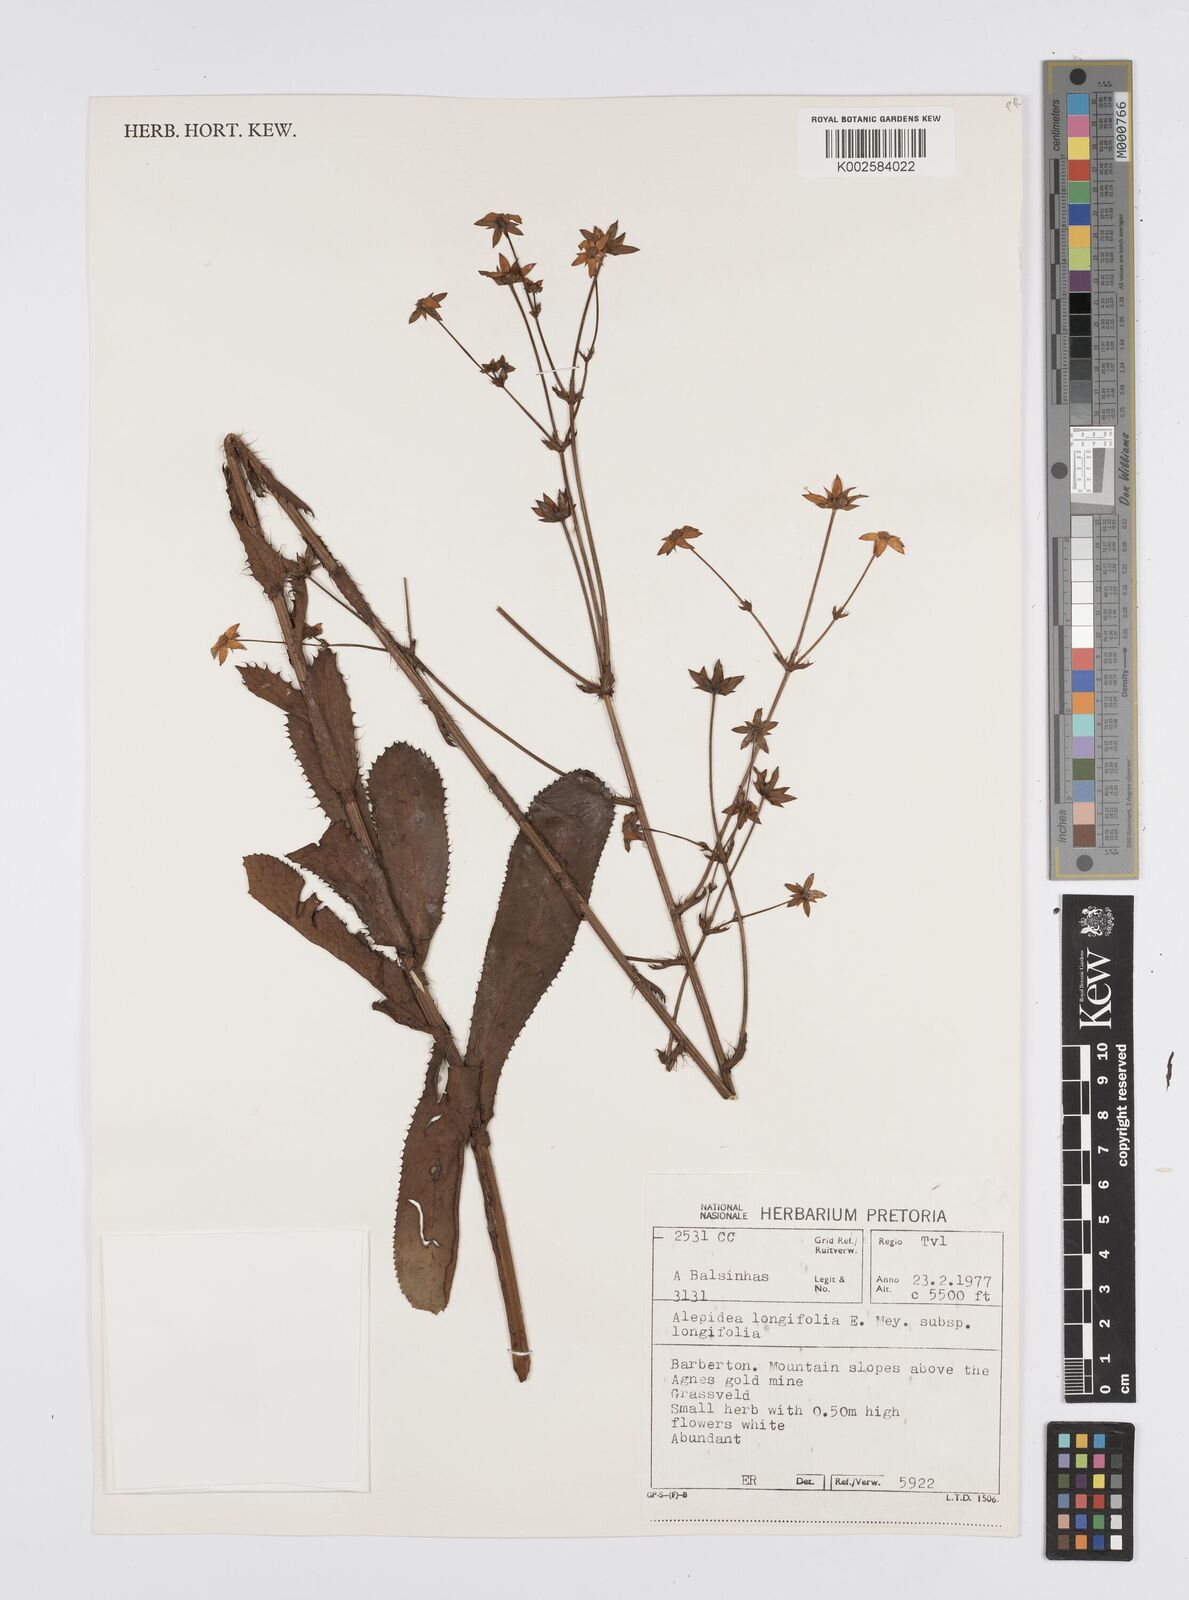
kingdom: Plantae
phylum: Tracheophyta
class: Magnoliopsida
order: Apiales
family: Apiaceae
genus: Alepidea
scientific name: Alepidea
